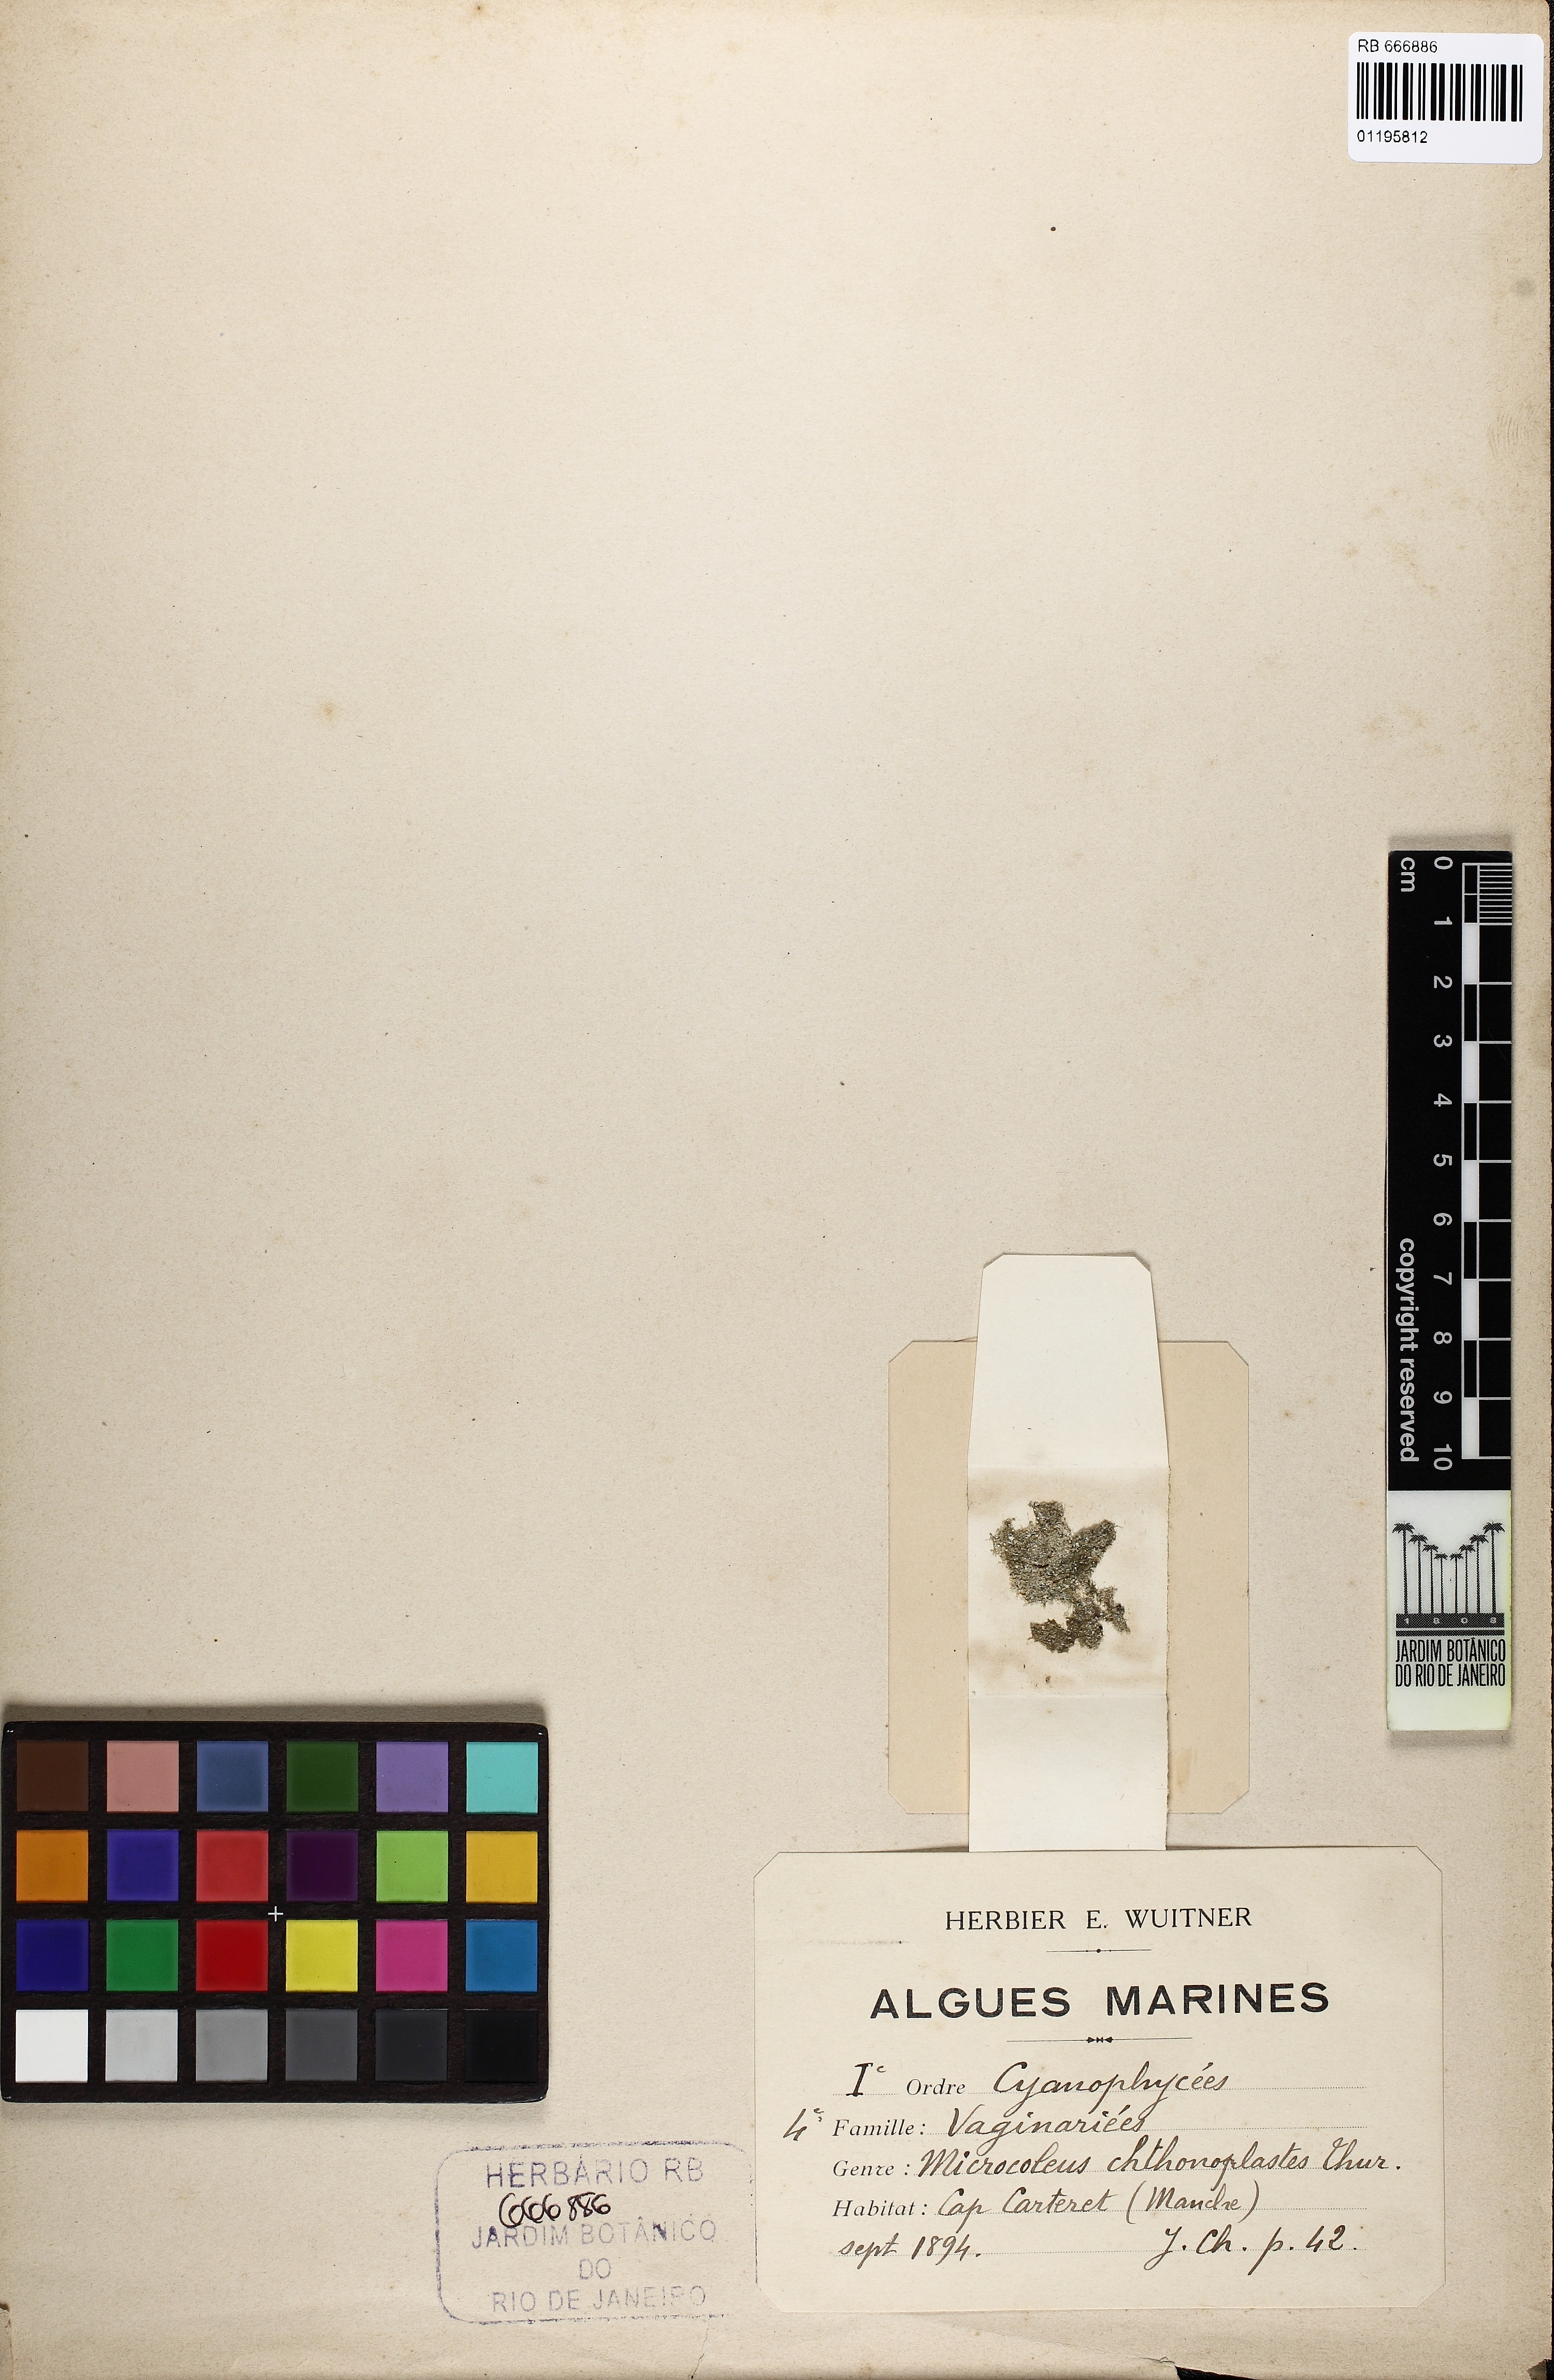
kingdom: Bacteria
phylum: Cyanobacteria
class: Cyanobacteriia
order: Cyanobacteriales
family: Coleofasciculaceae
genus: Coleofasciculus
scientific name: Coleofasciculus chthonoplastes
